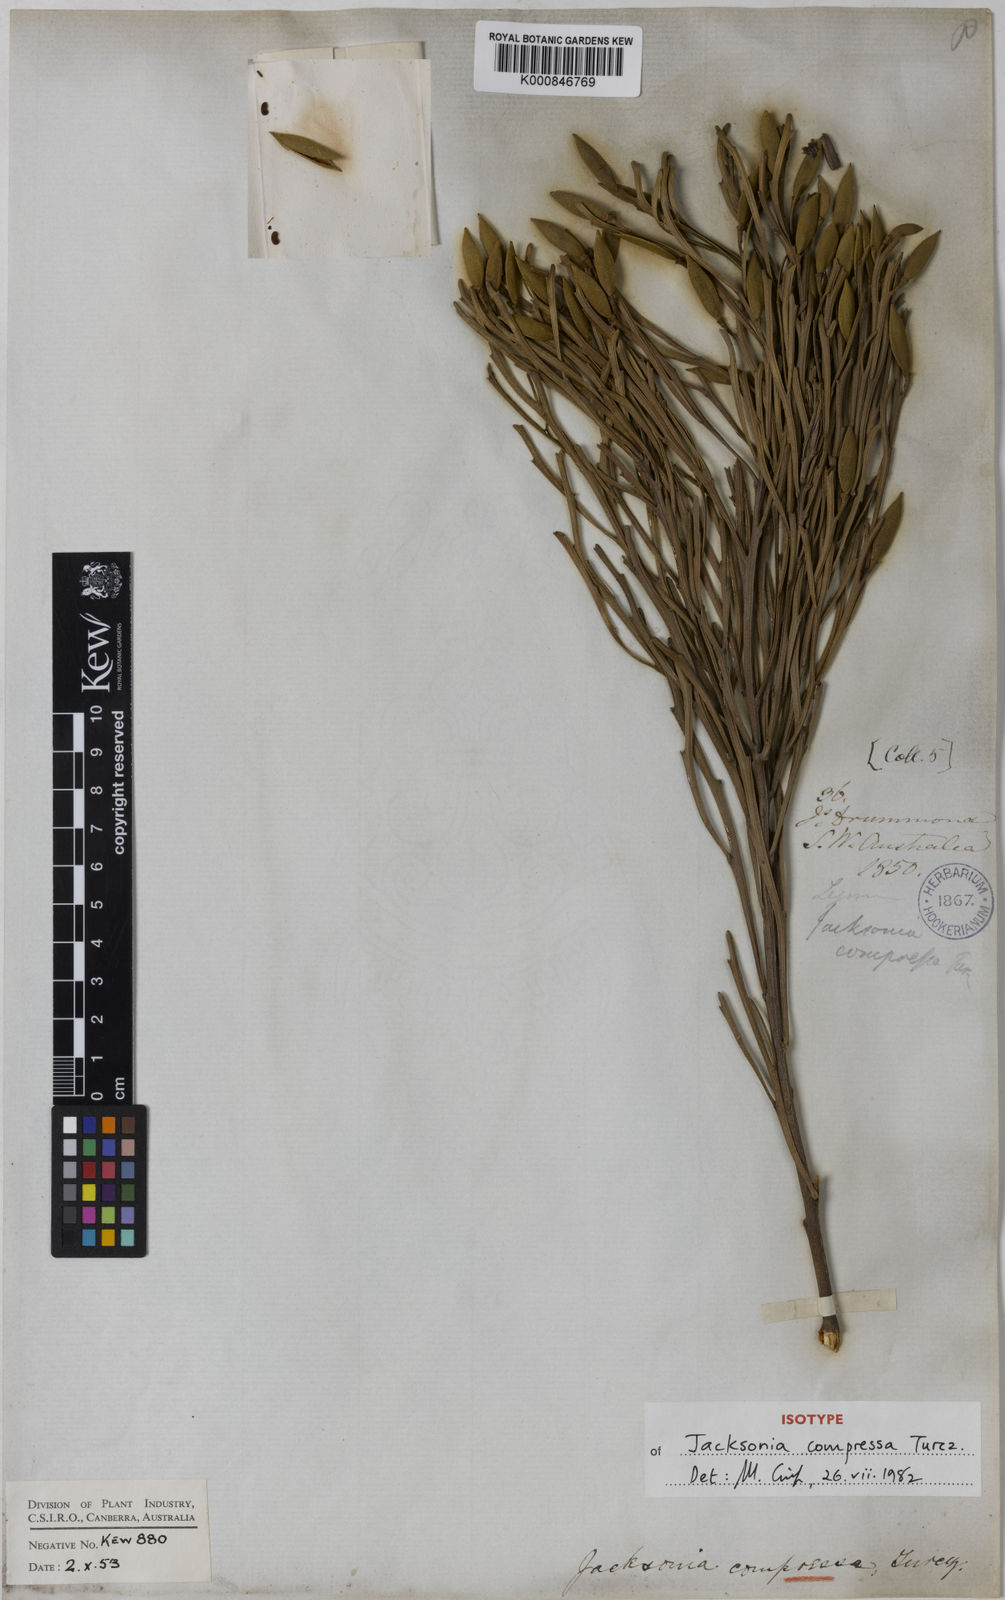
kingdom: Plantae
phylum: Tracheophyta
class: Magnoliopsida
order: Fabales
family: Fabaceae
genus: Jacksonia
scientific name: Jacksonia compressa
